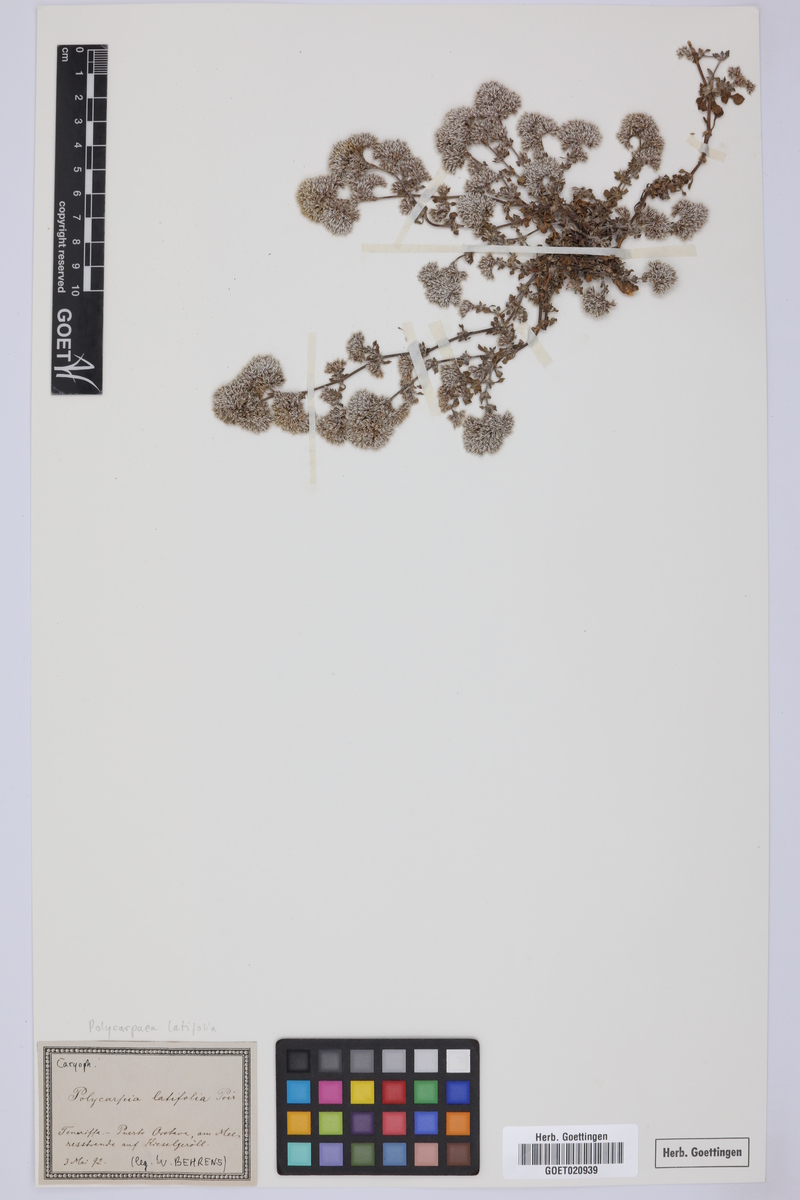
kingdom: Plantae
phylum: Tracheophyta
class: Magnoliopsida
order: Caryophyllales
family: Caryophyllaceae
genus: Polycarpaea
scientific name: Polycarpaea latifolia
